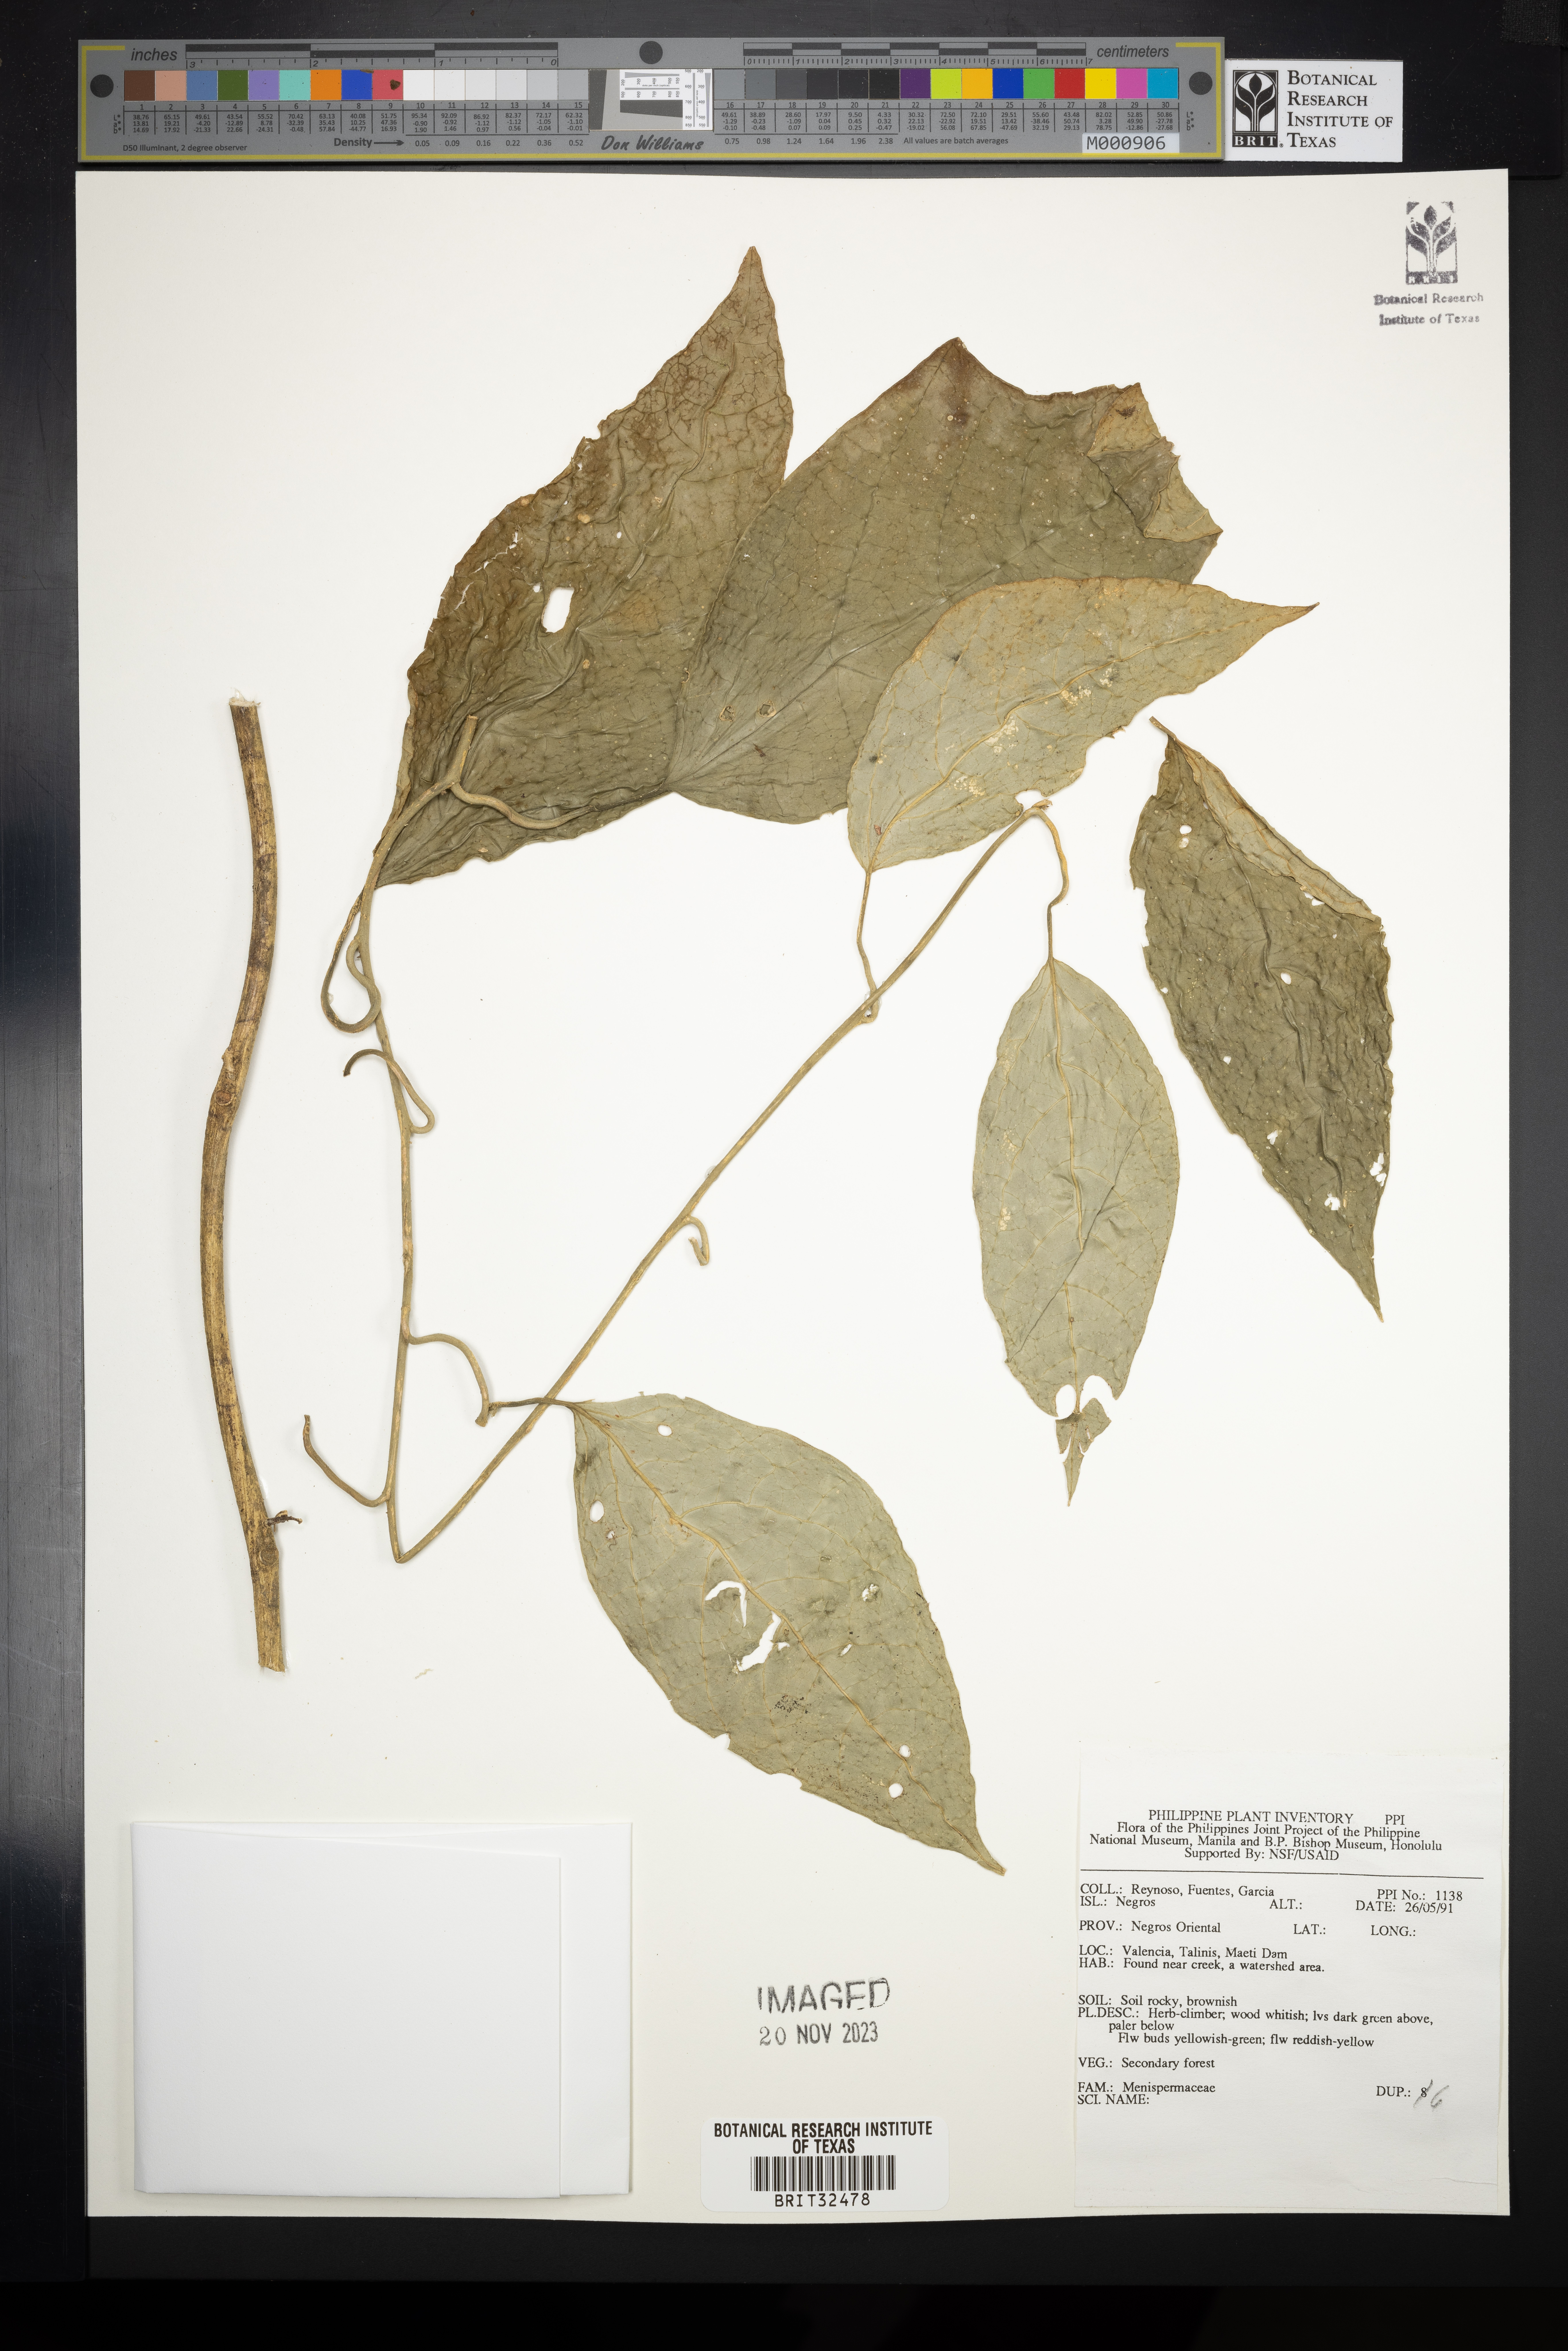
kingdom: Plantae
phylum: Tracheophyta
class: Magnoliopsida
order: Ranunculales
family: Menispermaceae
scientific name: Menispermaceae
